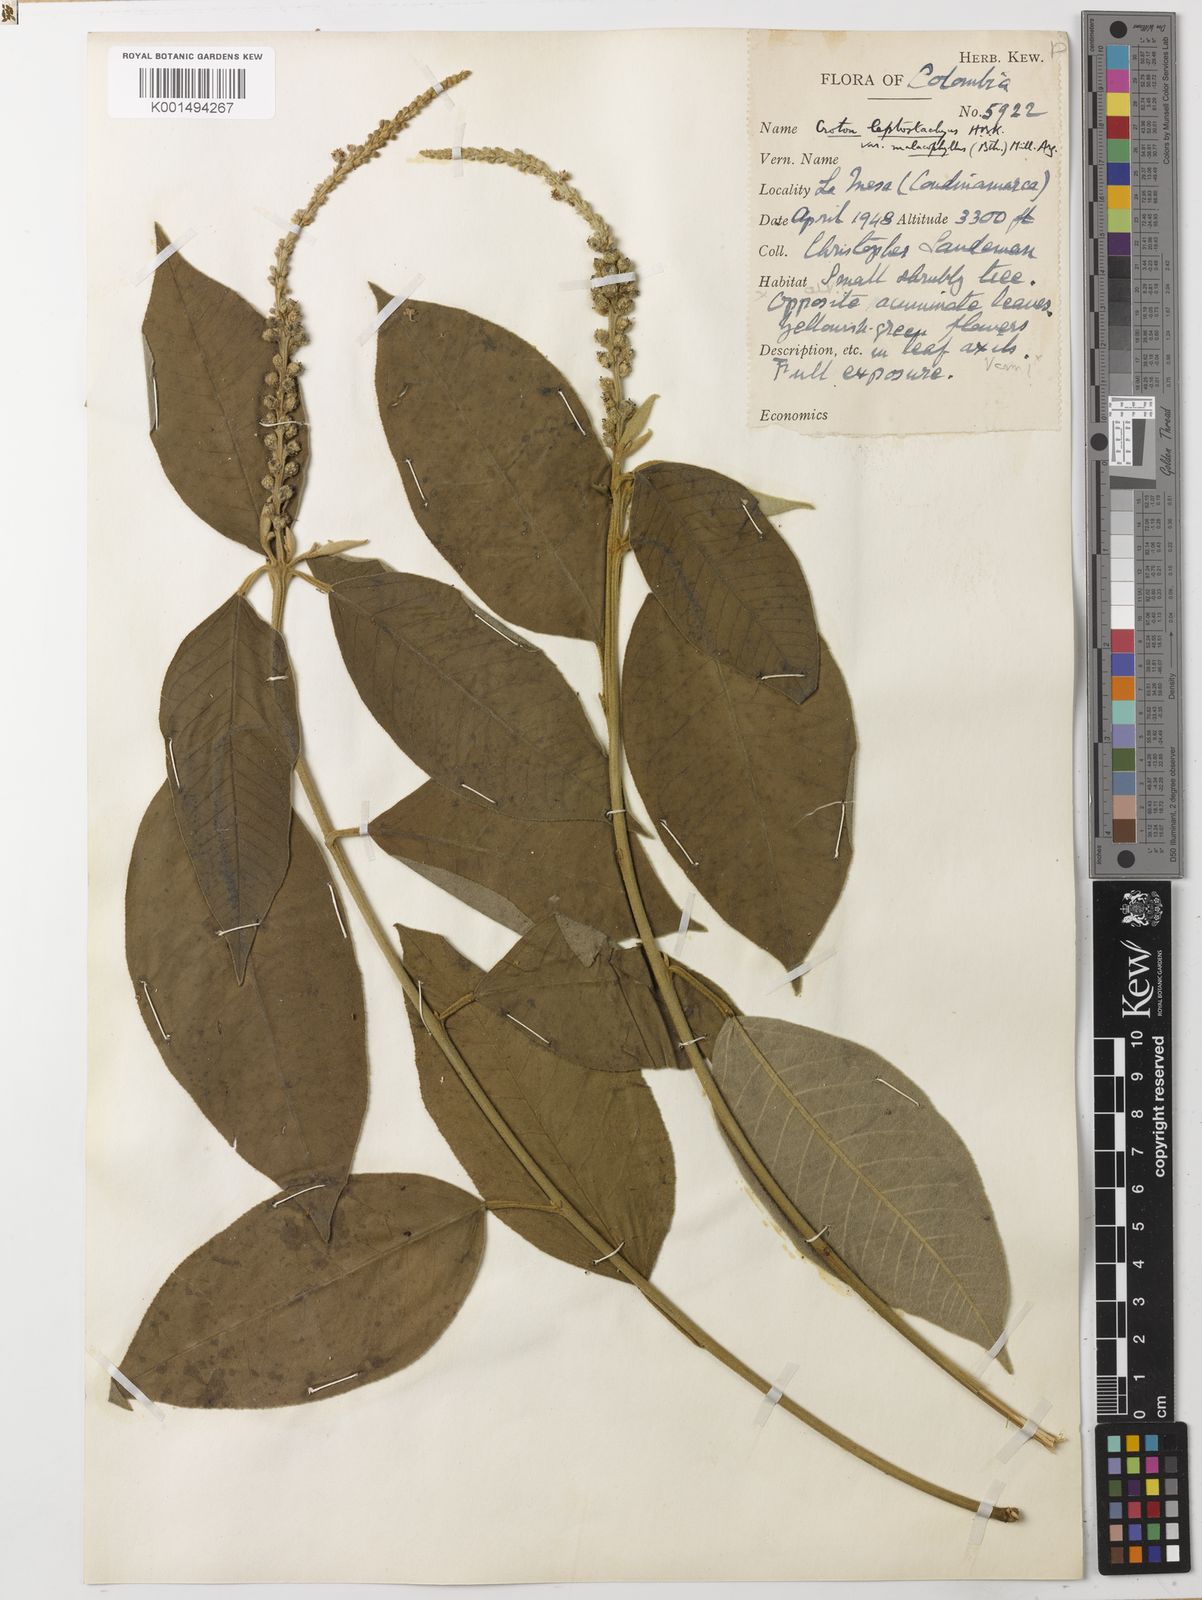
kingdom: Plantae
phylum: Tracheophyta
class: Magnoliopsida
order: Malpighiales
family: Euphorbiaceae
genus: Croton
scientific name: Croton leptostachyus
